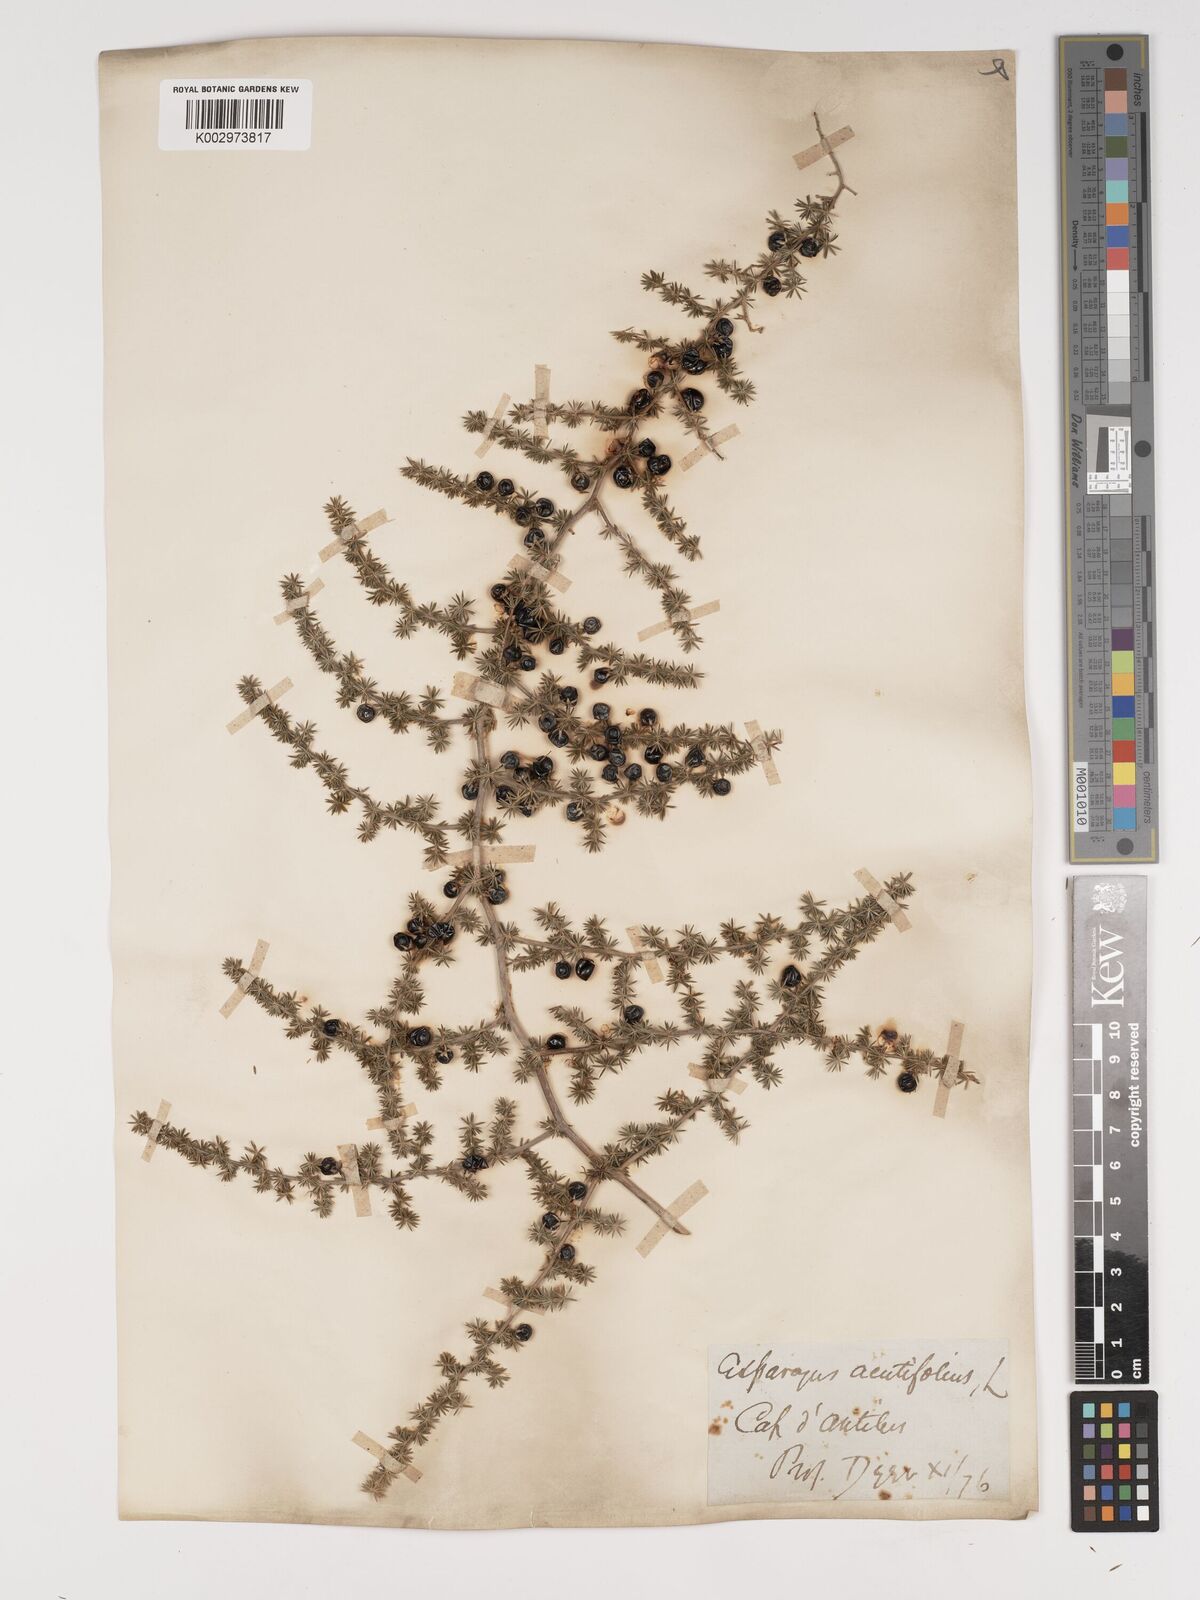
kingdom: Plantae
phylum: Tracheophyta
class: Liliopsida
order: Asparagales
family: Asparagaceae
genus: Asparagus
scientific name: Asparagus aethiopicus
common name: Sprenger's asparagus fern
